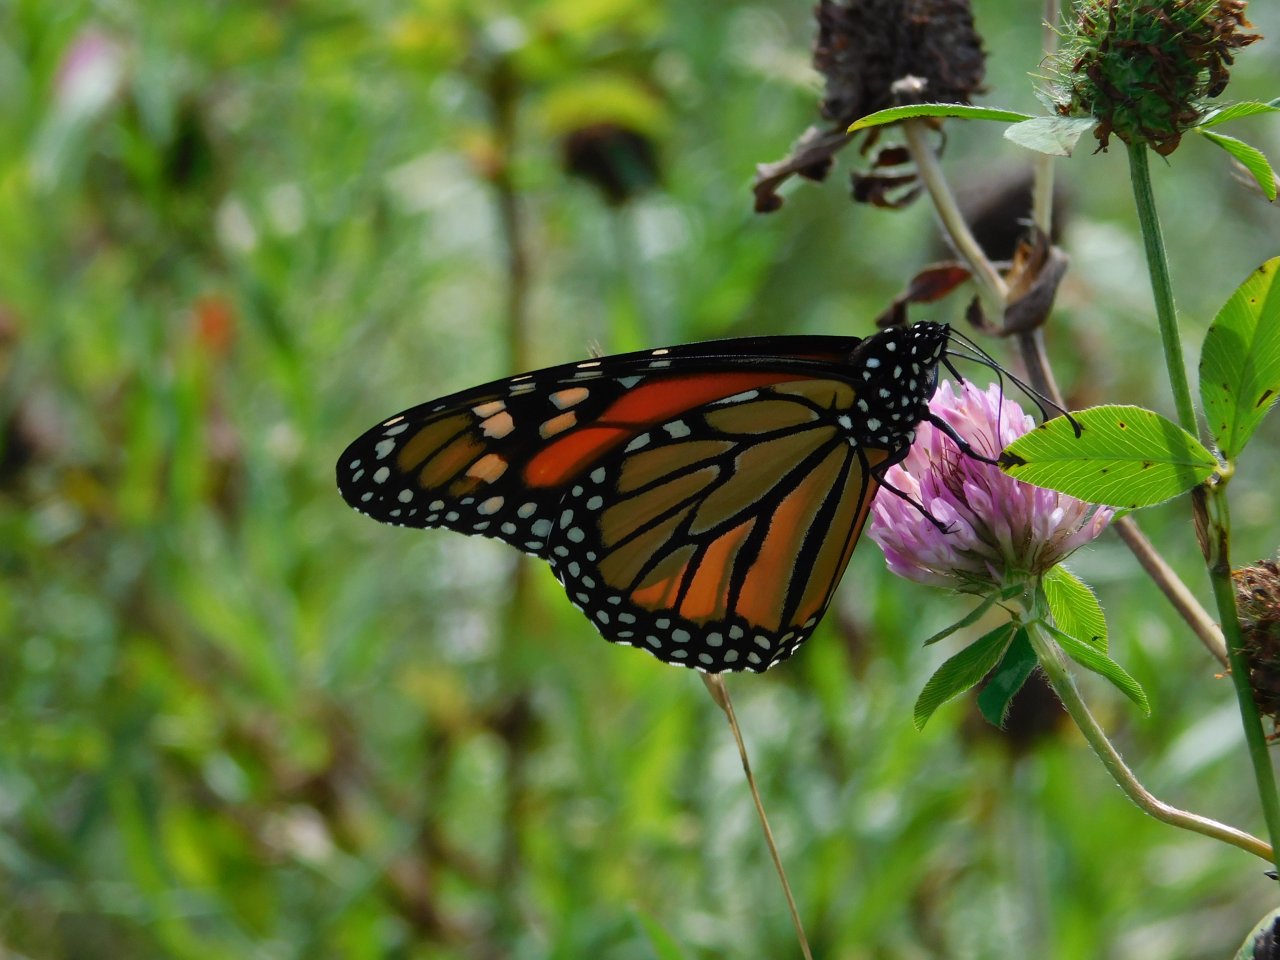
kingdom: Animalia
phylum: Arthropoda
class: Insecta
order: Lepidoptera
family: Nymphalidae
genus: Danaus
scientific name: Danaus plexippus
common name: Monarch
